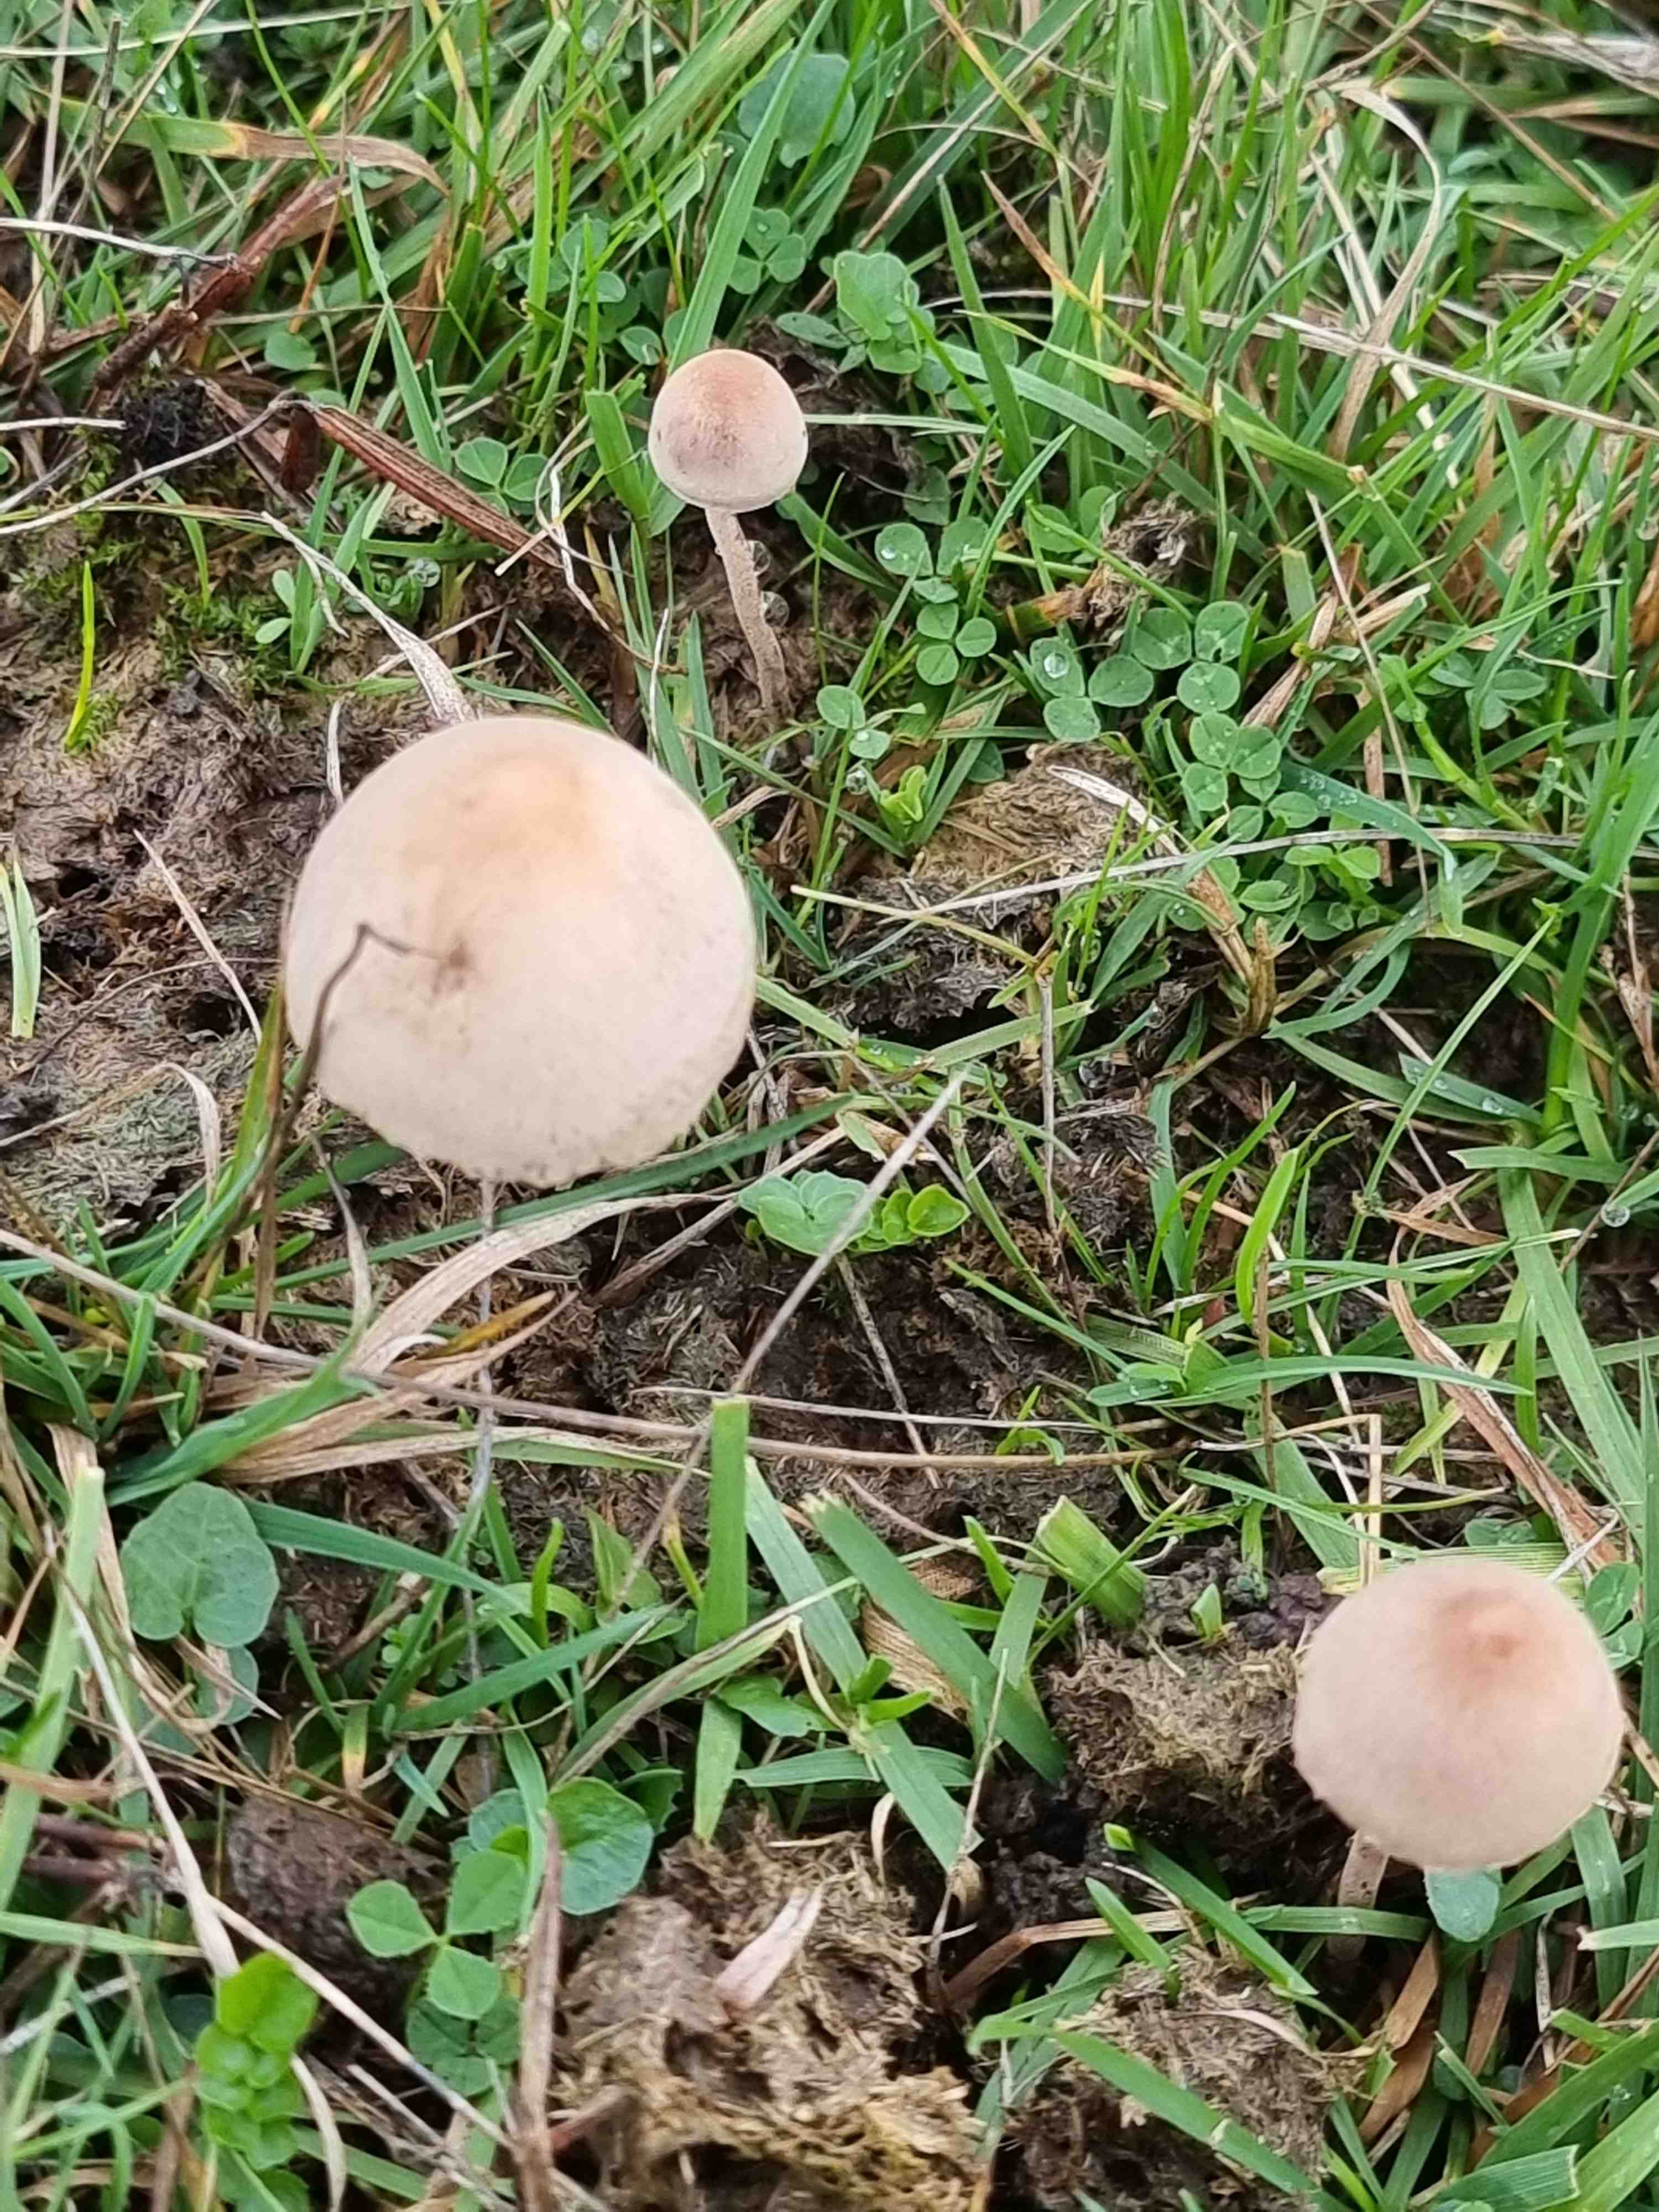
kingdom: Fungi
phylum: Basidiomycota
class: Agaricomycetes
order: Agaricales
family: Bolbitiaceae
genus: Panaeolus
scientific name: Panaeolus papilionaceus
